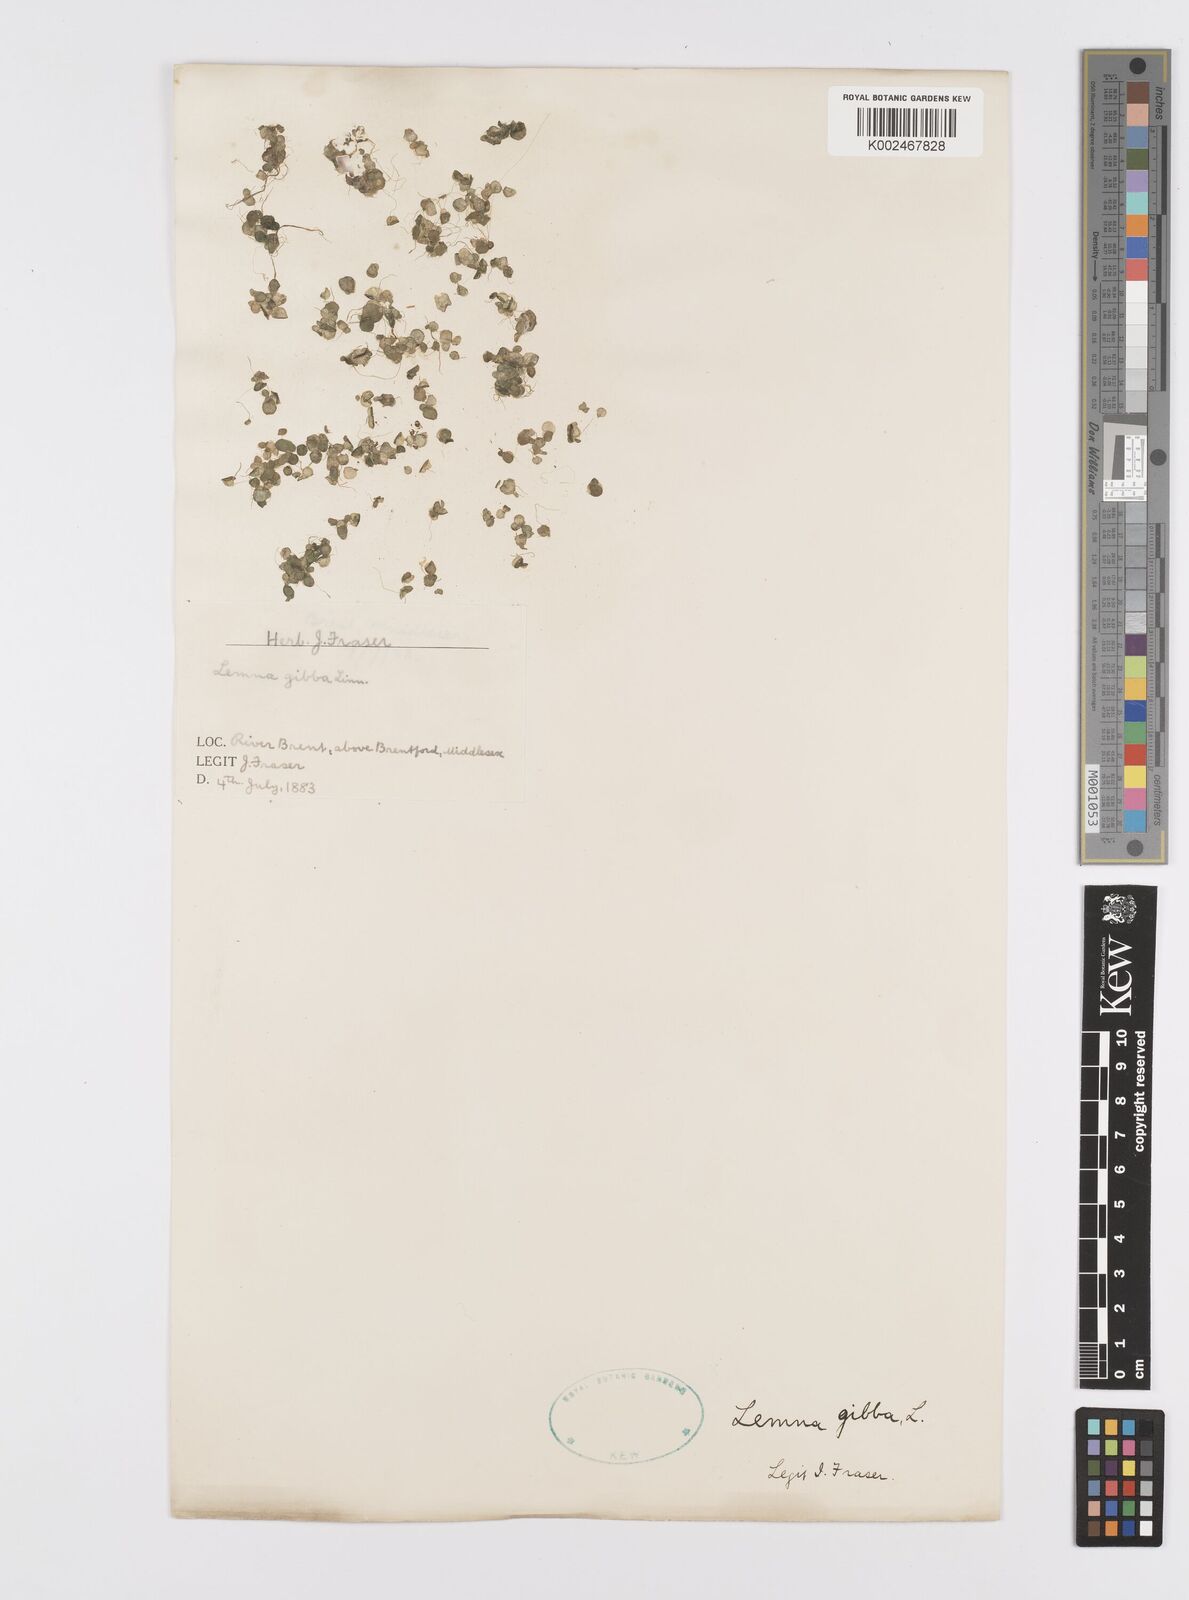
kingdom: Plantae
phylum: Tracheophyta
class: Liliopsida
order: Alismatales
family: Araceae
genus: Lemna
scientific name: Lemna gibba
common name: Fat duckweed
